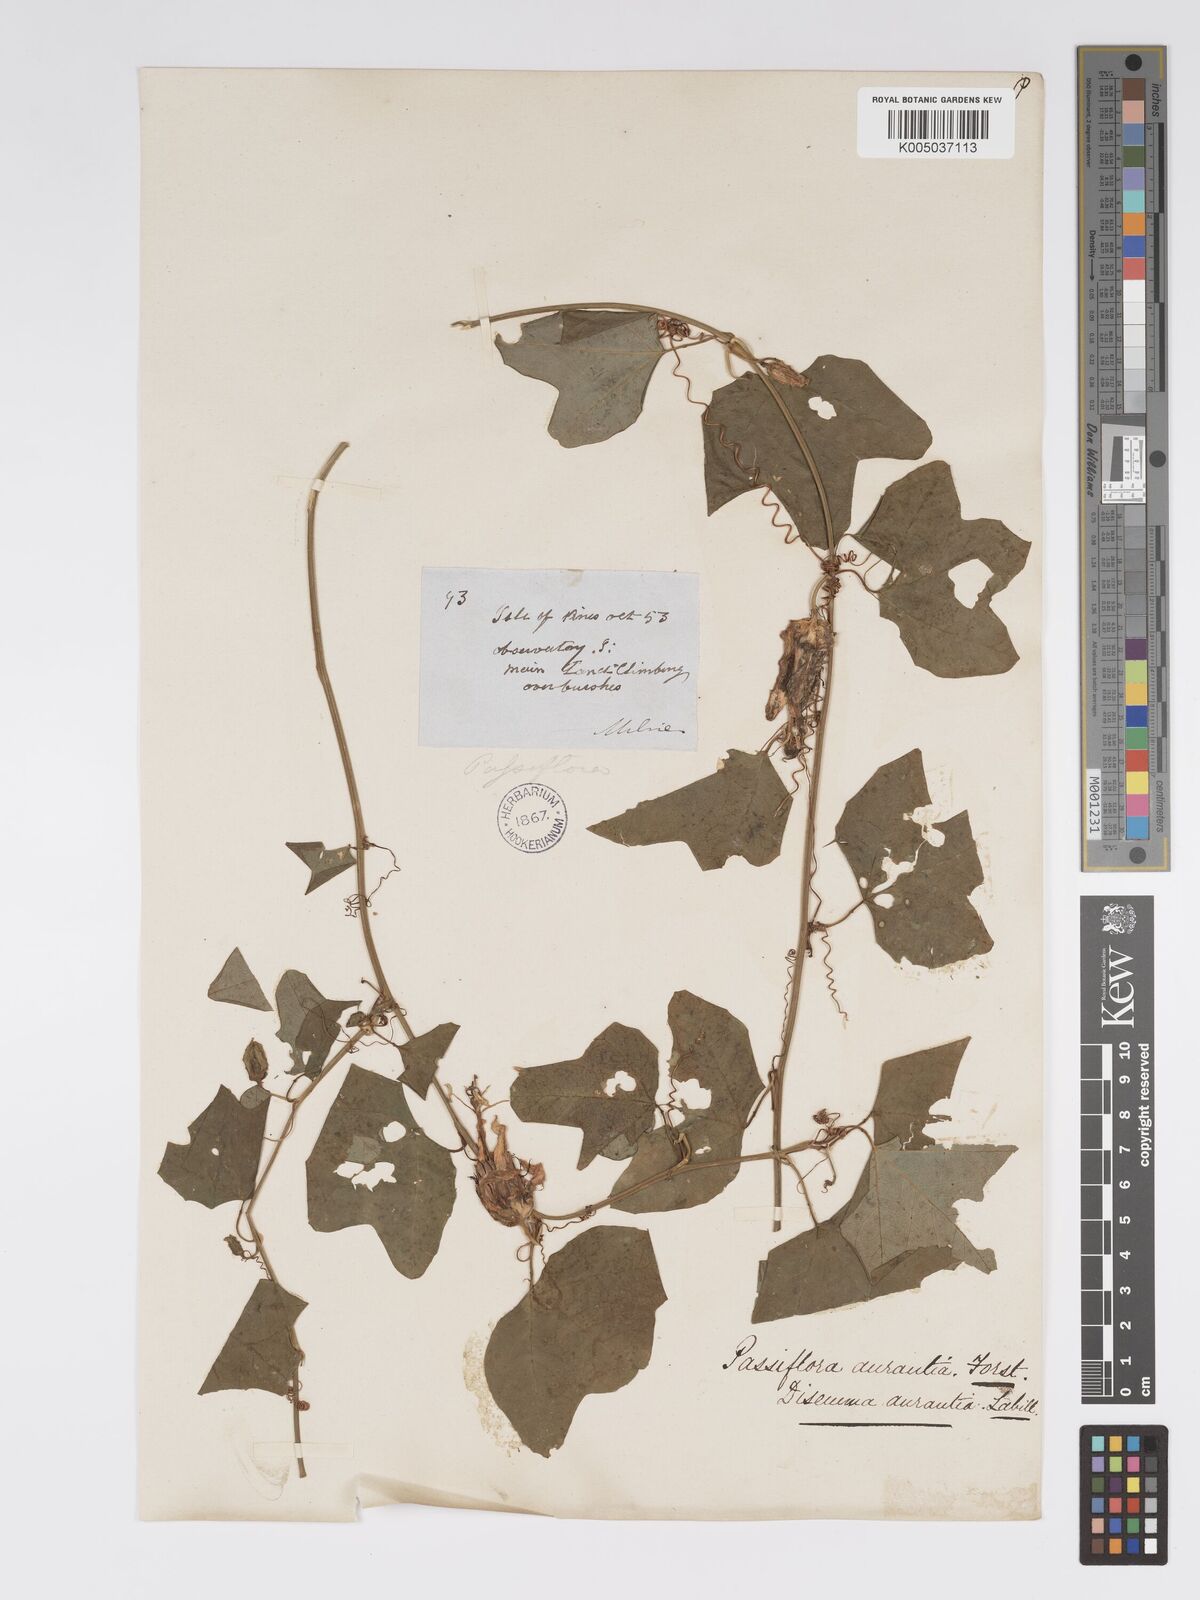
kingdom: Plantae
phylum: Tracheophyta
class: Magnoliopsida
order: Malpighiales
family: Passifloraceae
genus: Passiflora
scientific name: Passiflora aurantia
